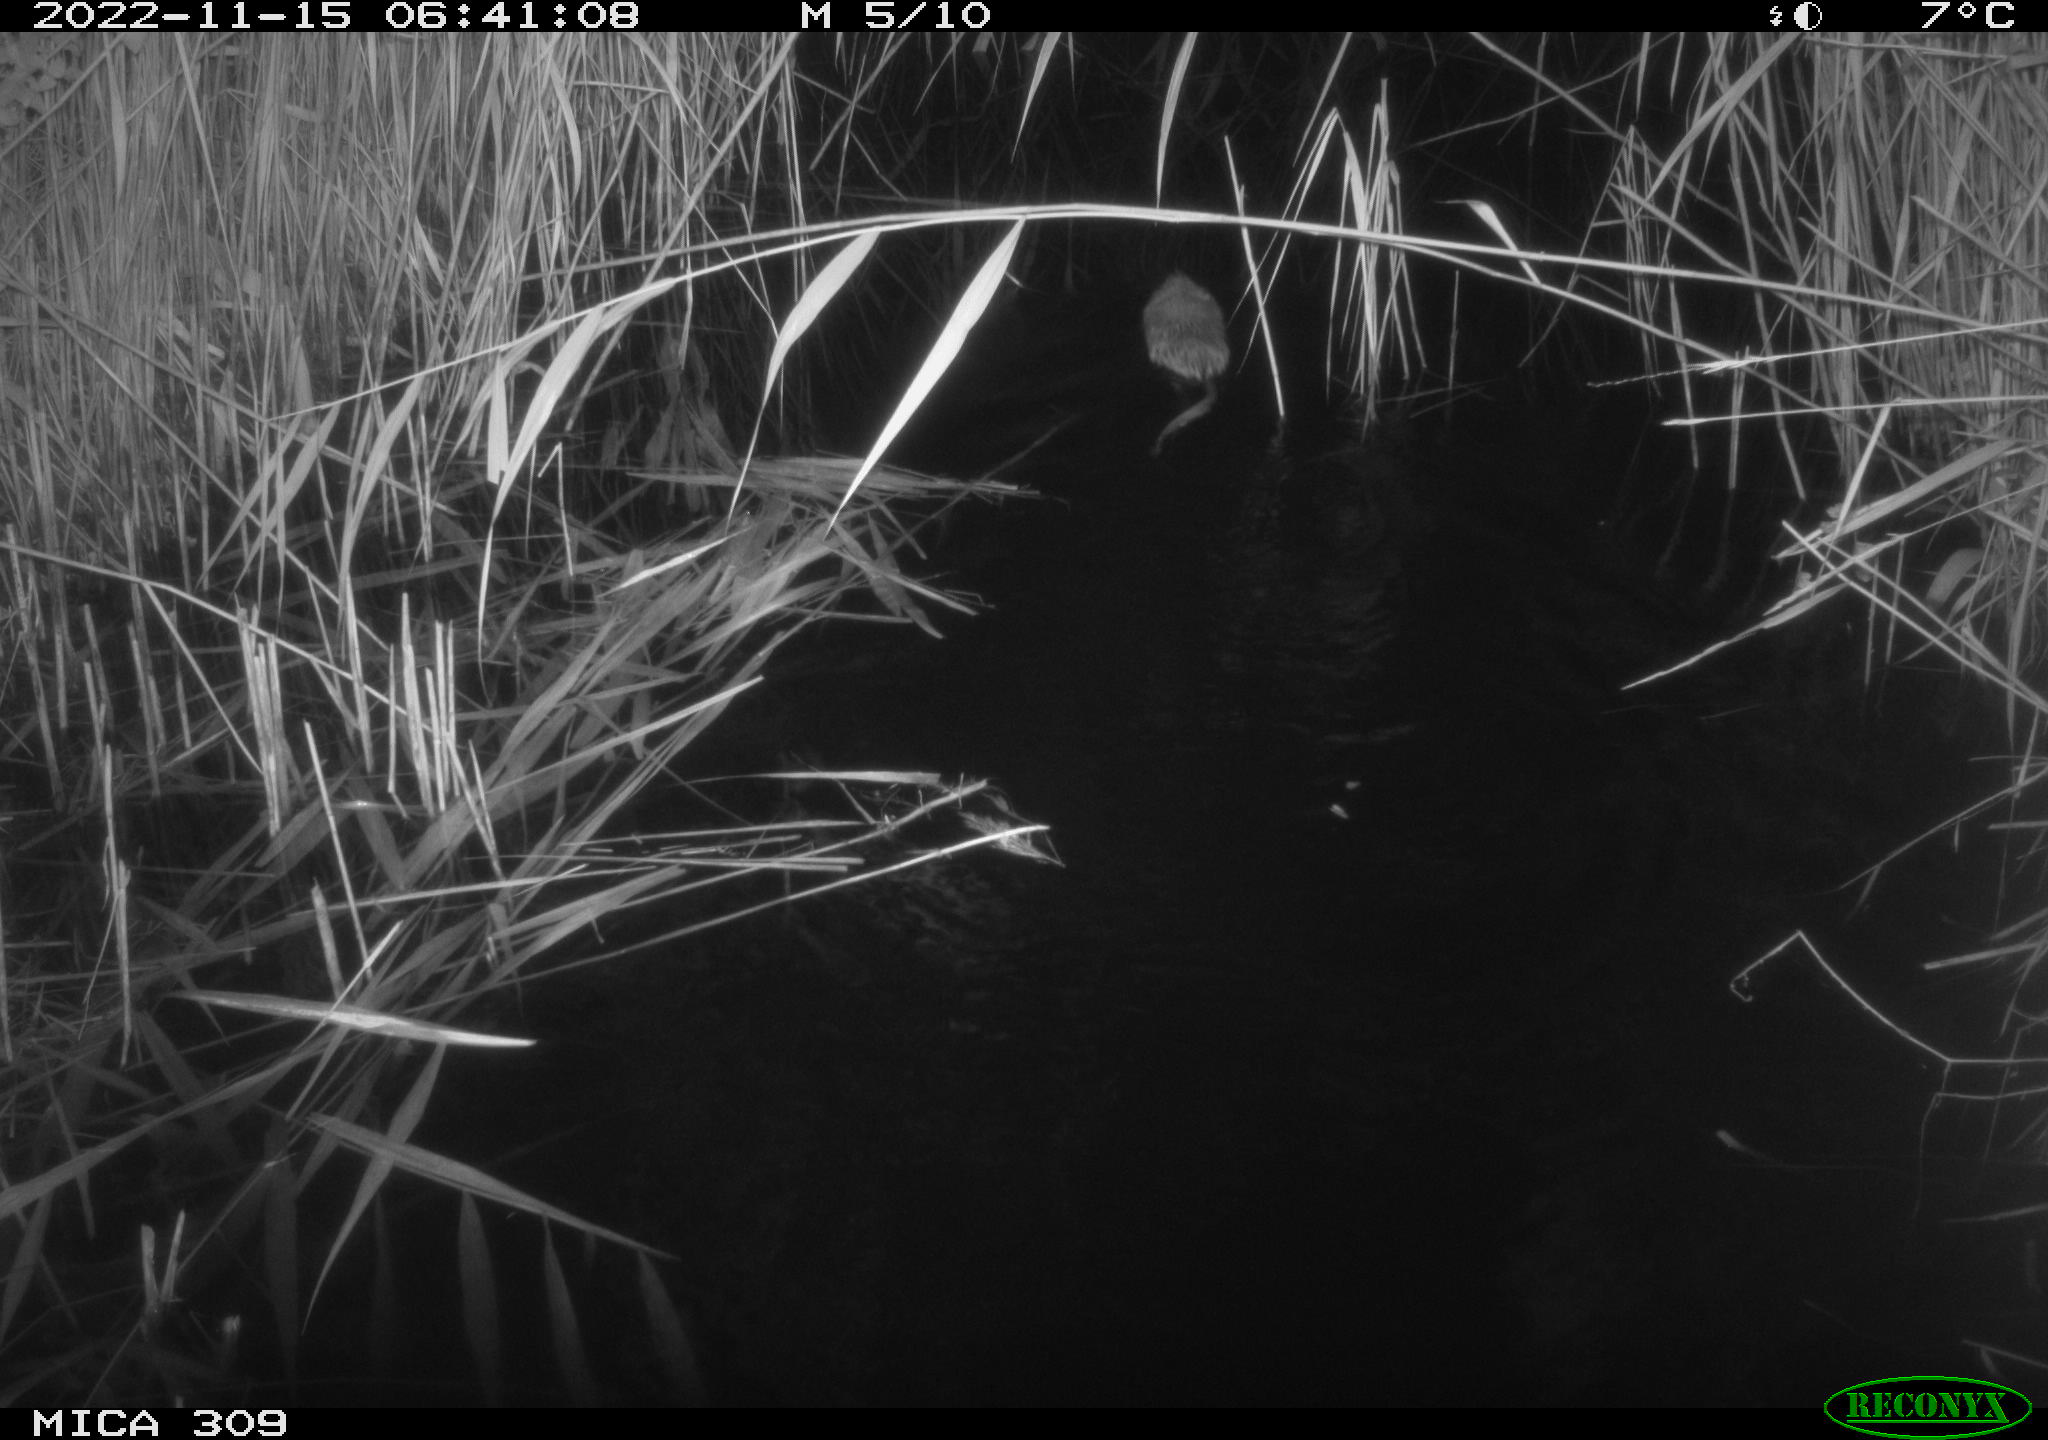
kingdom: Animalia
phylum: Chordata
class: Mammalia
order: Rodentia
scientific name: Rodentia
